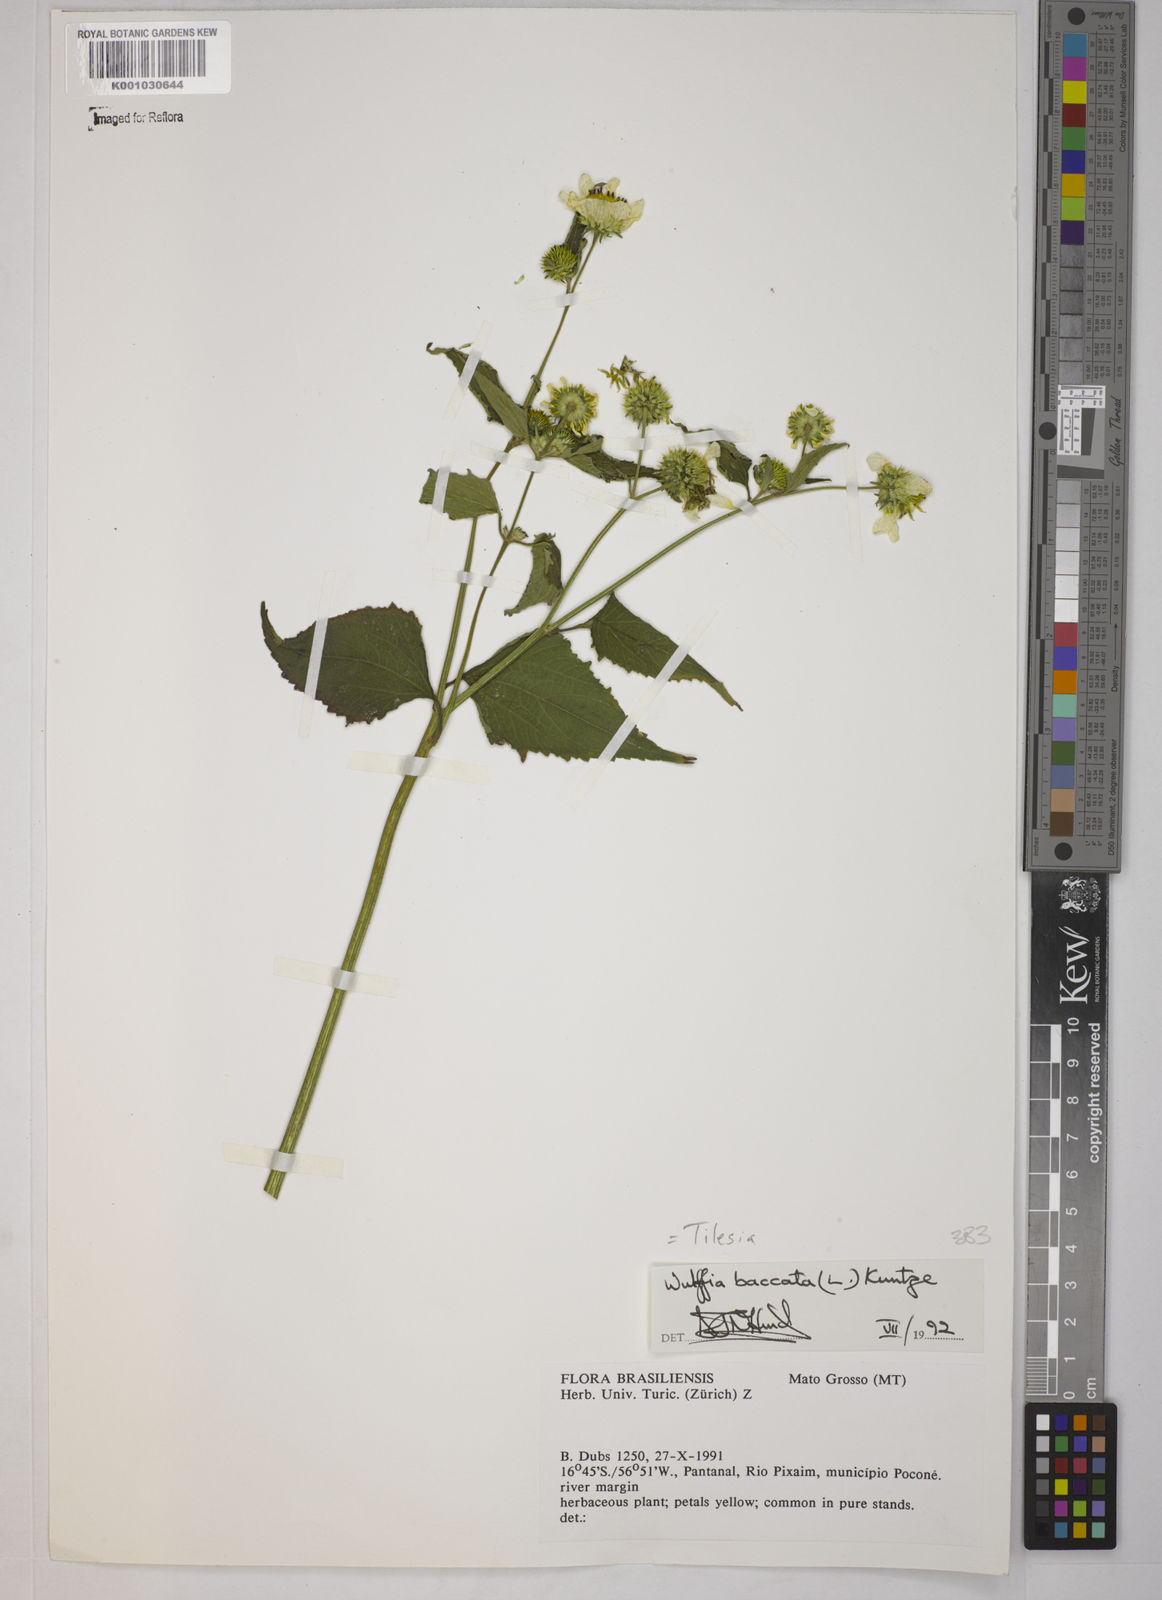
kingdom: Plantae
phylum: Tracheophyta
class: Magnoliopsida
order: Asterales
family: Asteraceae
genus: Tilesia
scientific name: Tilesia baccata
